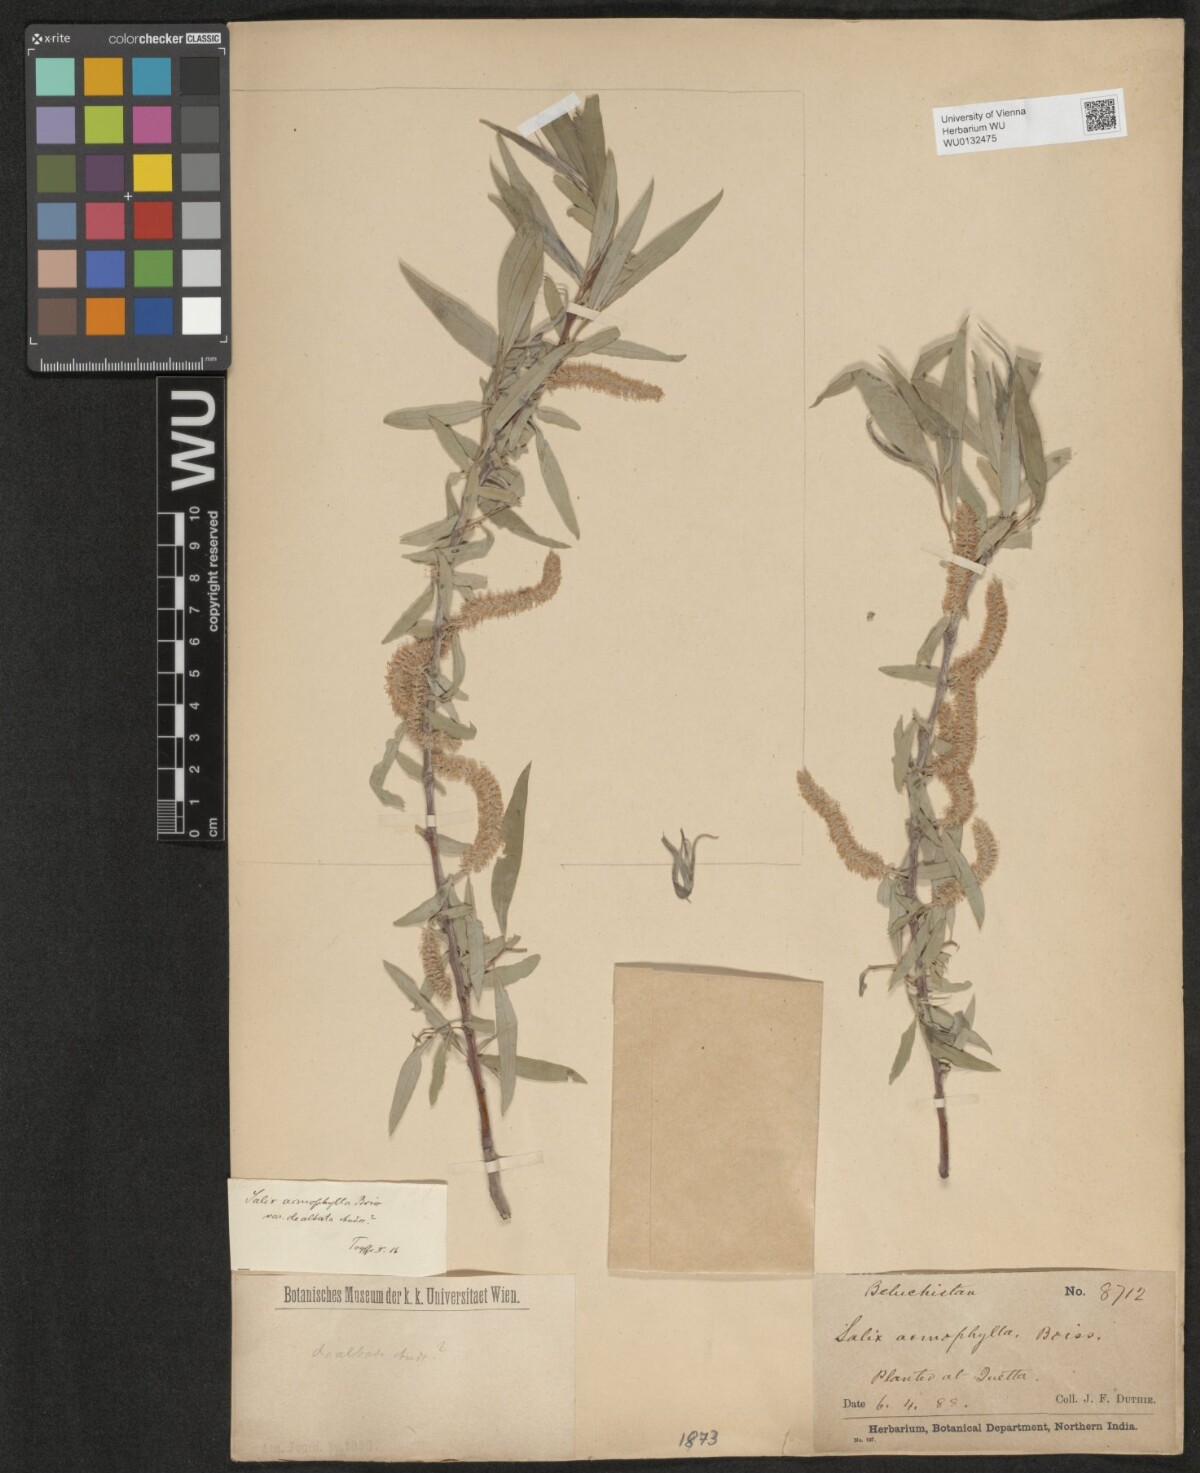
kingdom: Plantae
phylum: Tracheophyta
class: Magnoliopsida
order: Malpighiales
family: Salicaceae
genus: Salix
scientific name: Salix acmophylla
